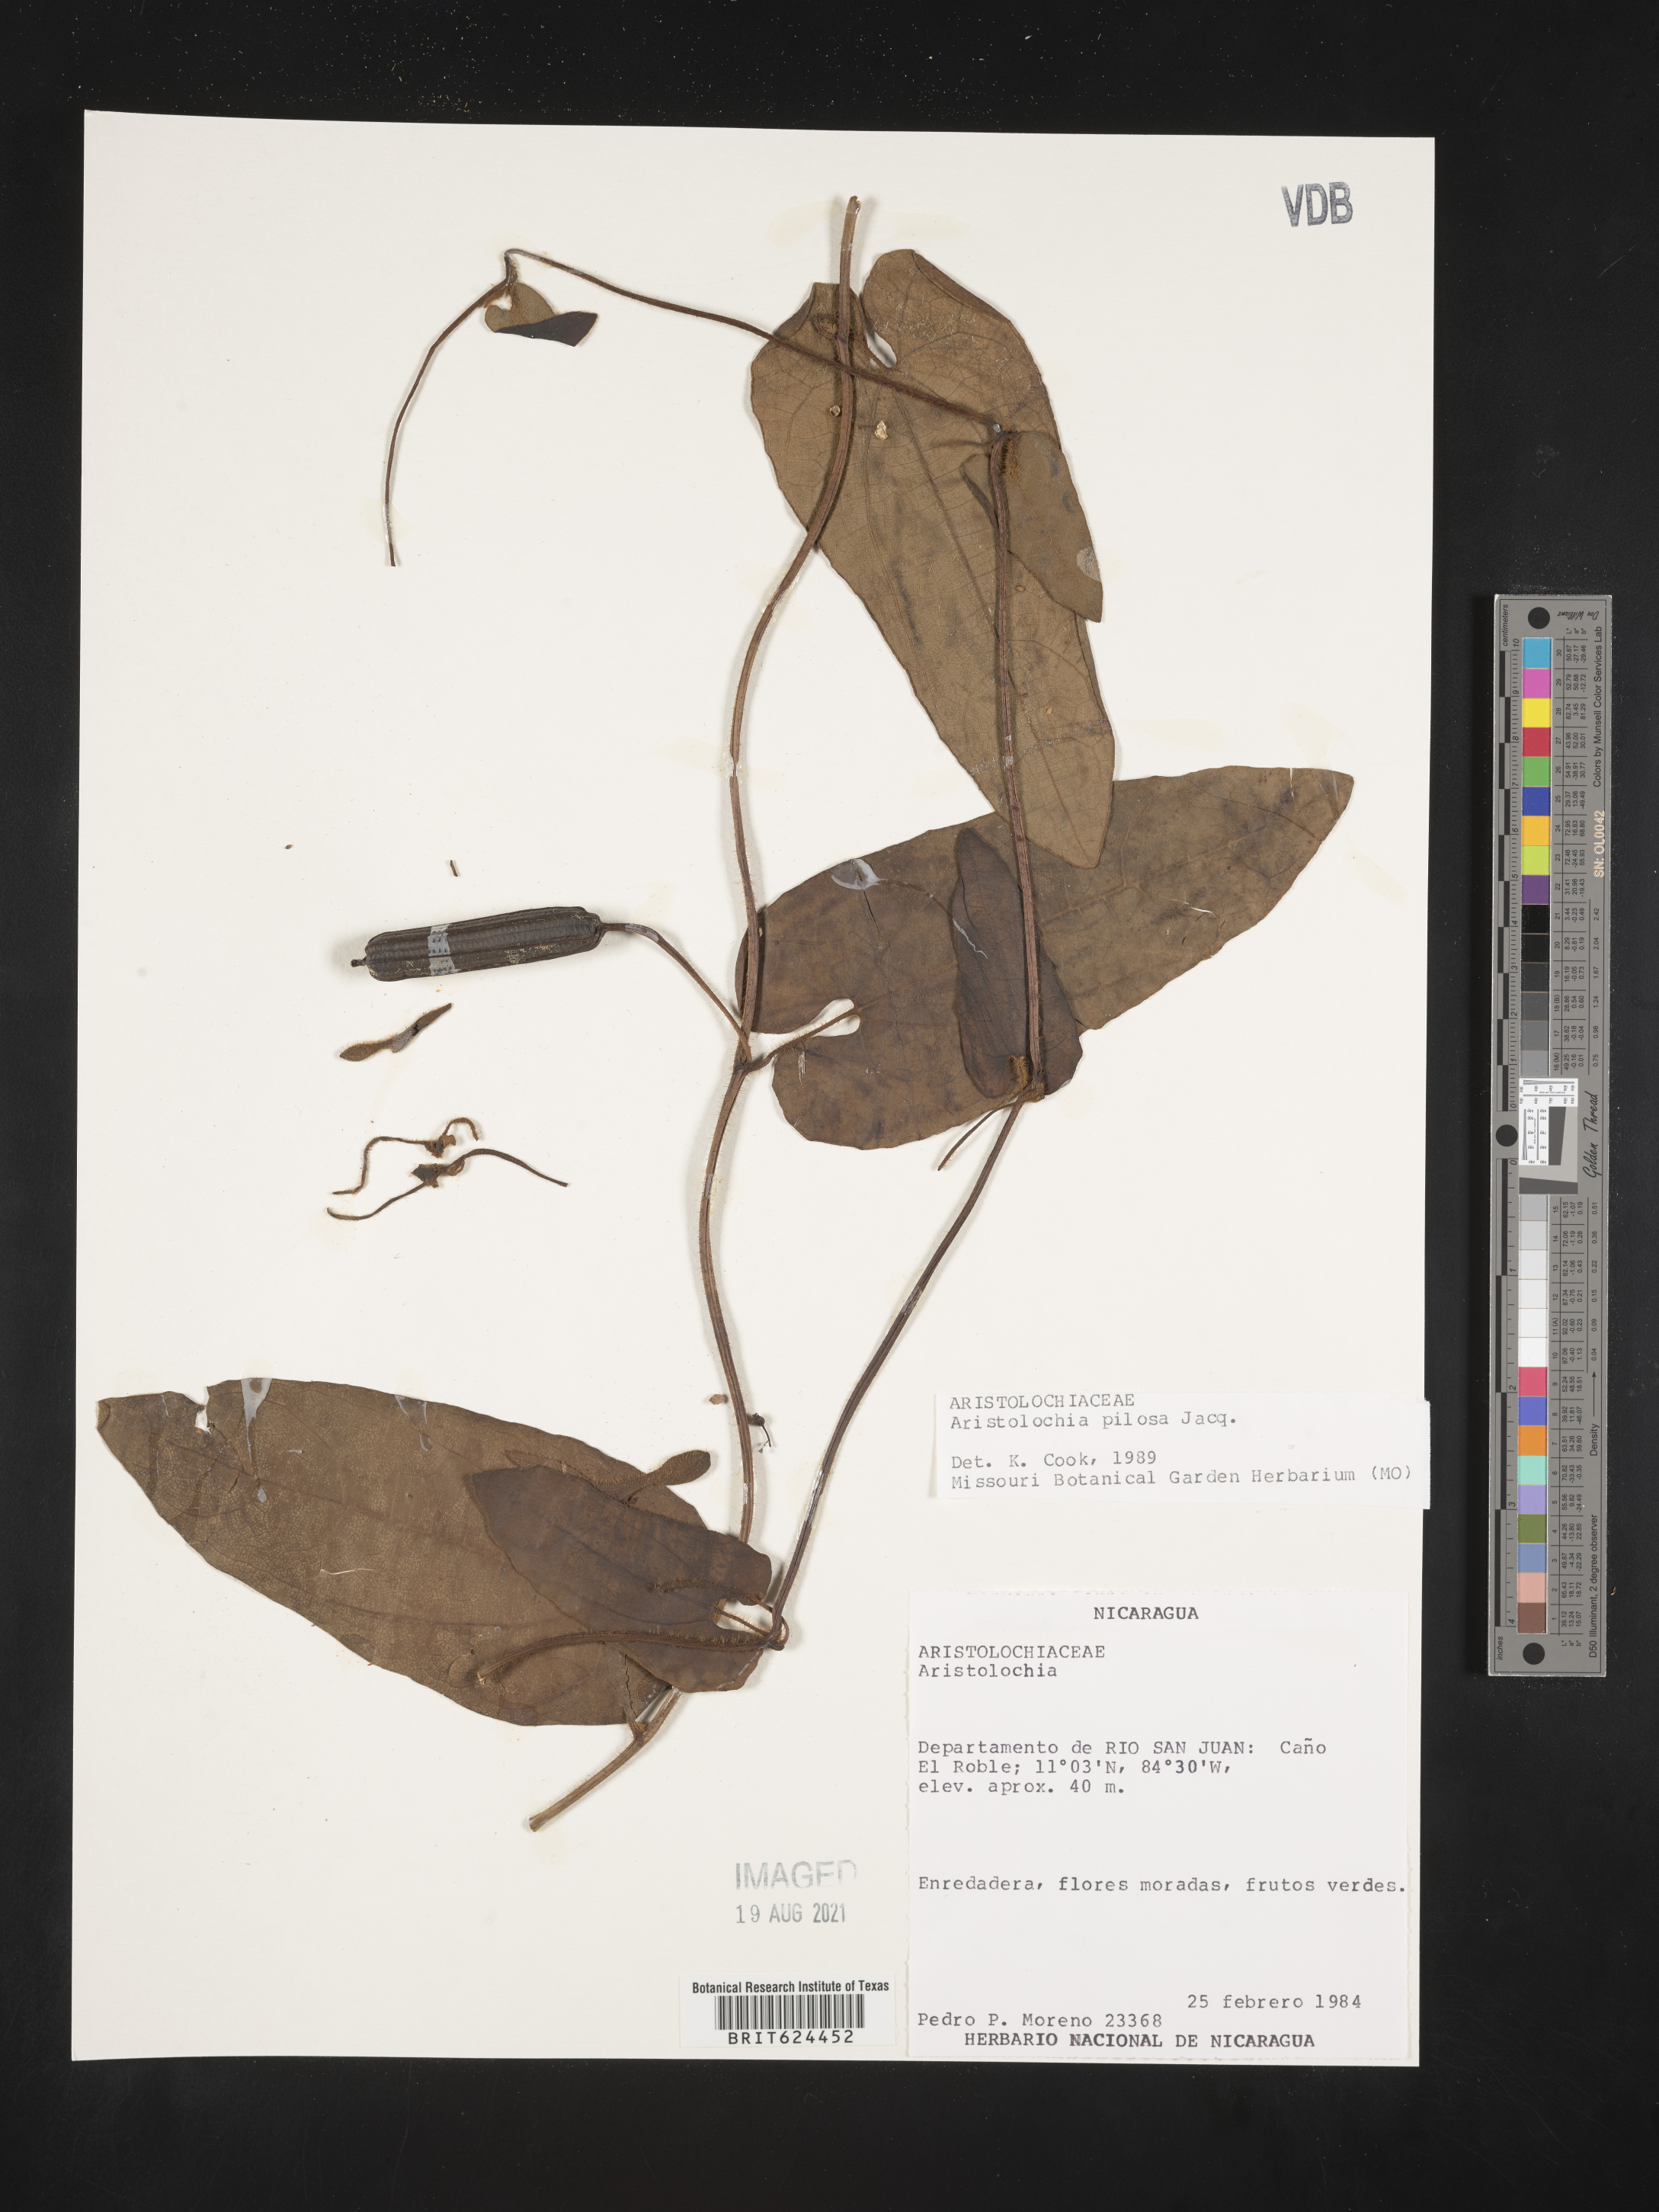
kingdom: Plantae
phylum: Tracheophyta
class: Magnoliopsida
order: Piperales
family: Aristolochiaceae
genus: Aristolochia
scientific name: Aristolochia pilosa
